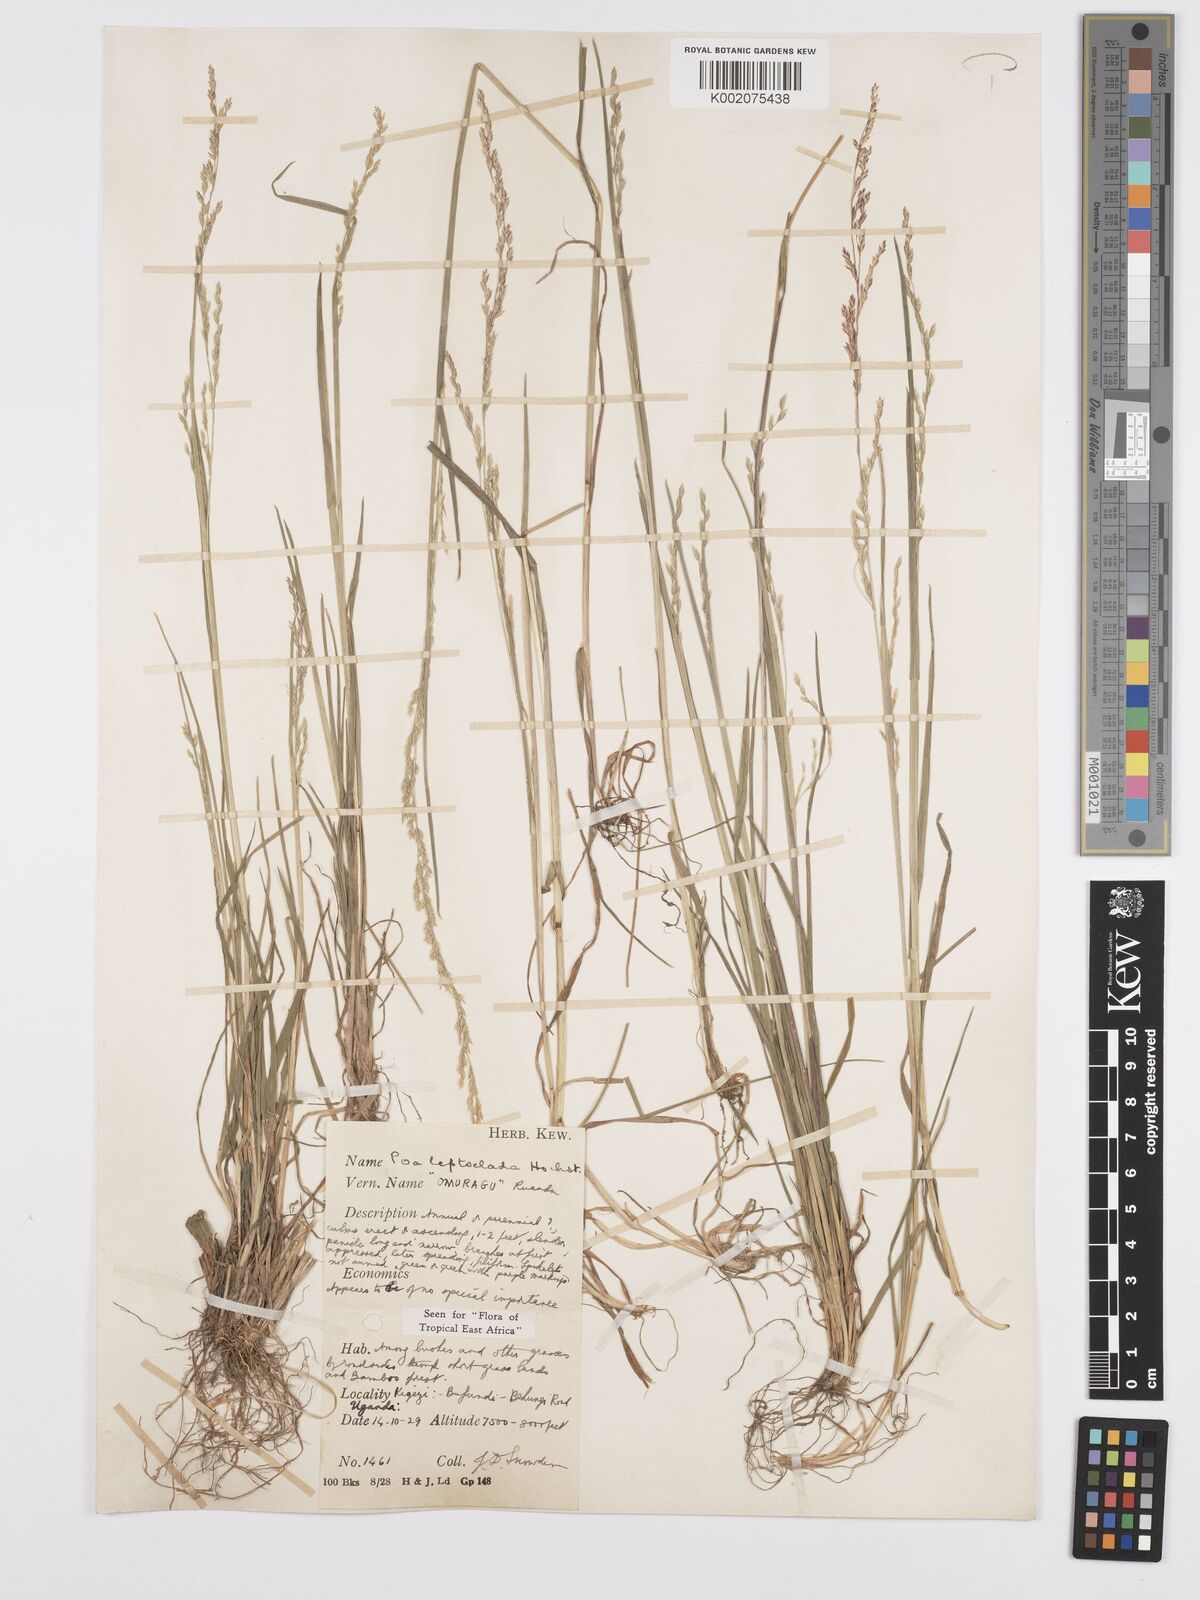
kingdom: Plantae
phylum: Tracheophyta
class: Liliopsida
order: Poales
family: Poaceae
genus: Poa
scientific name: Poa
